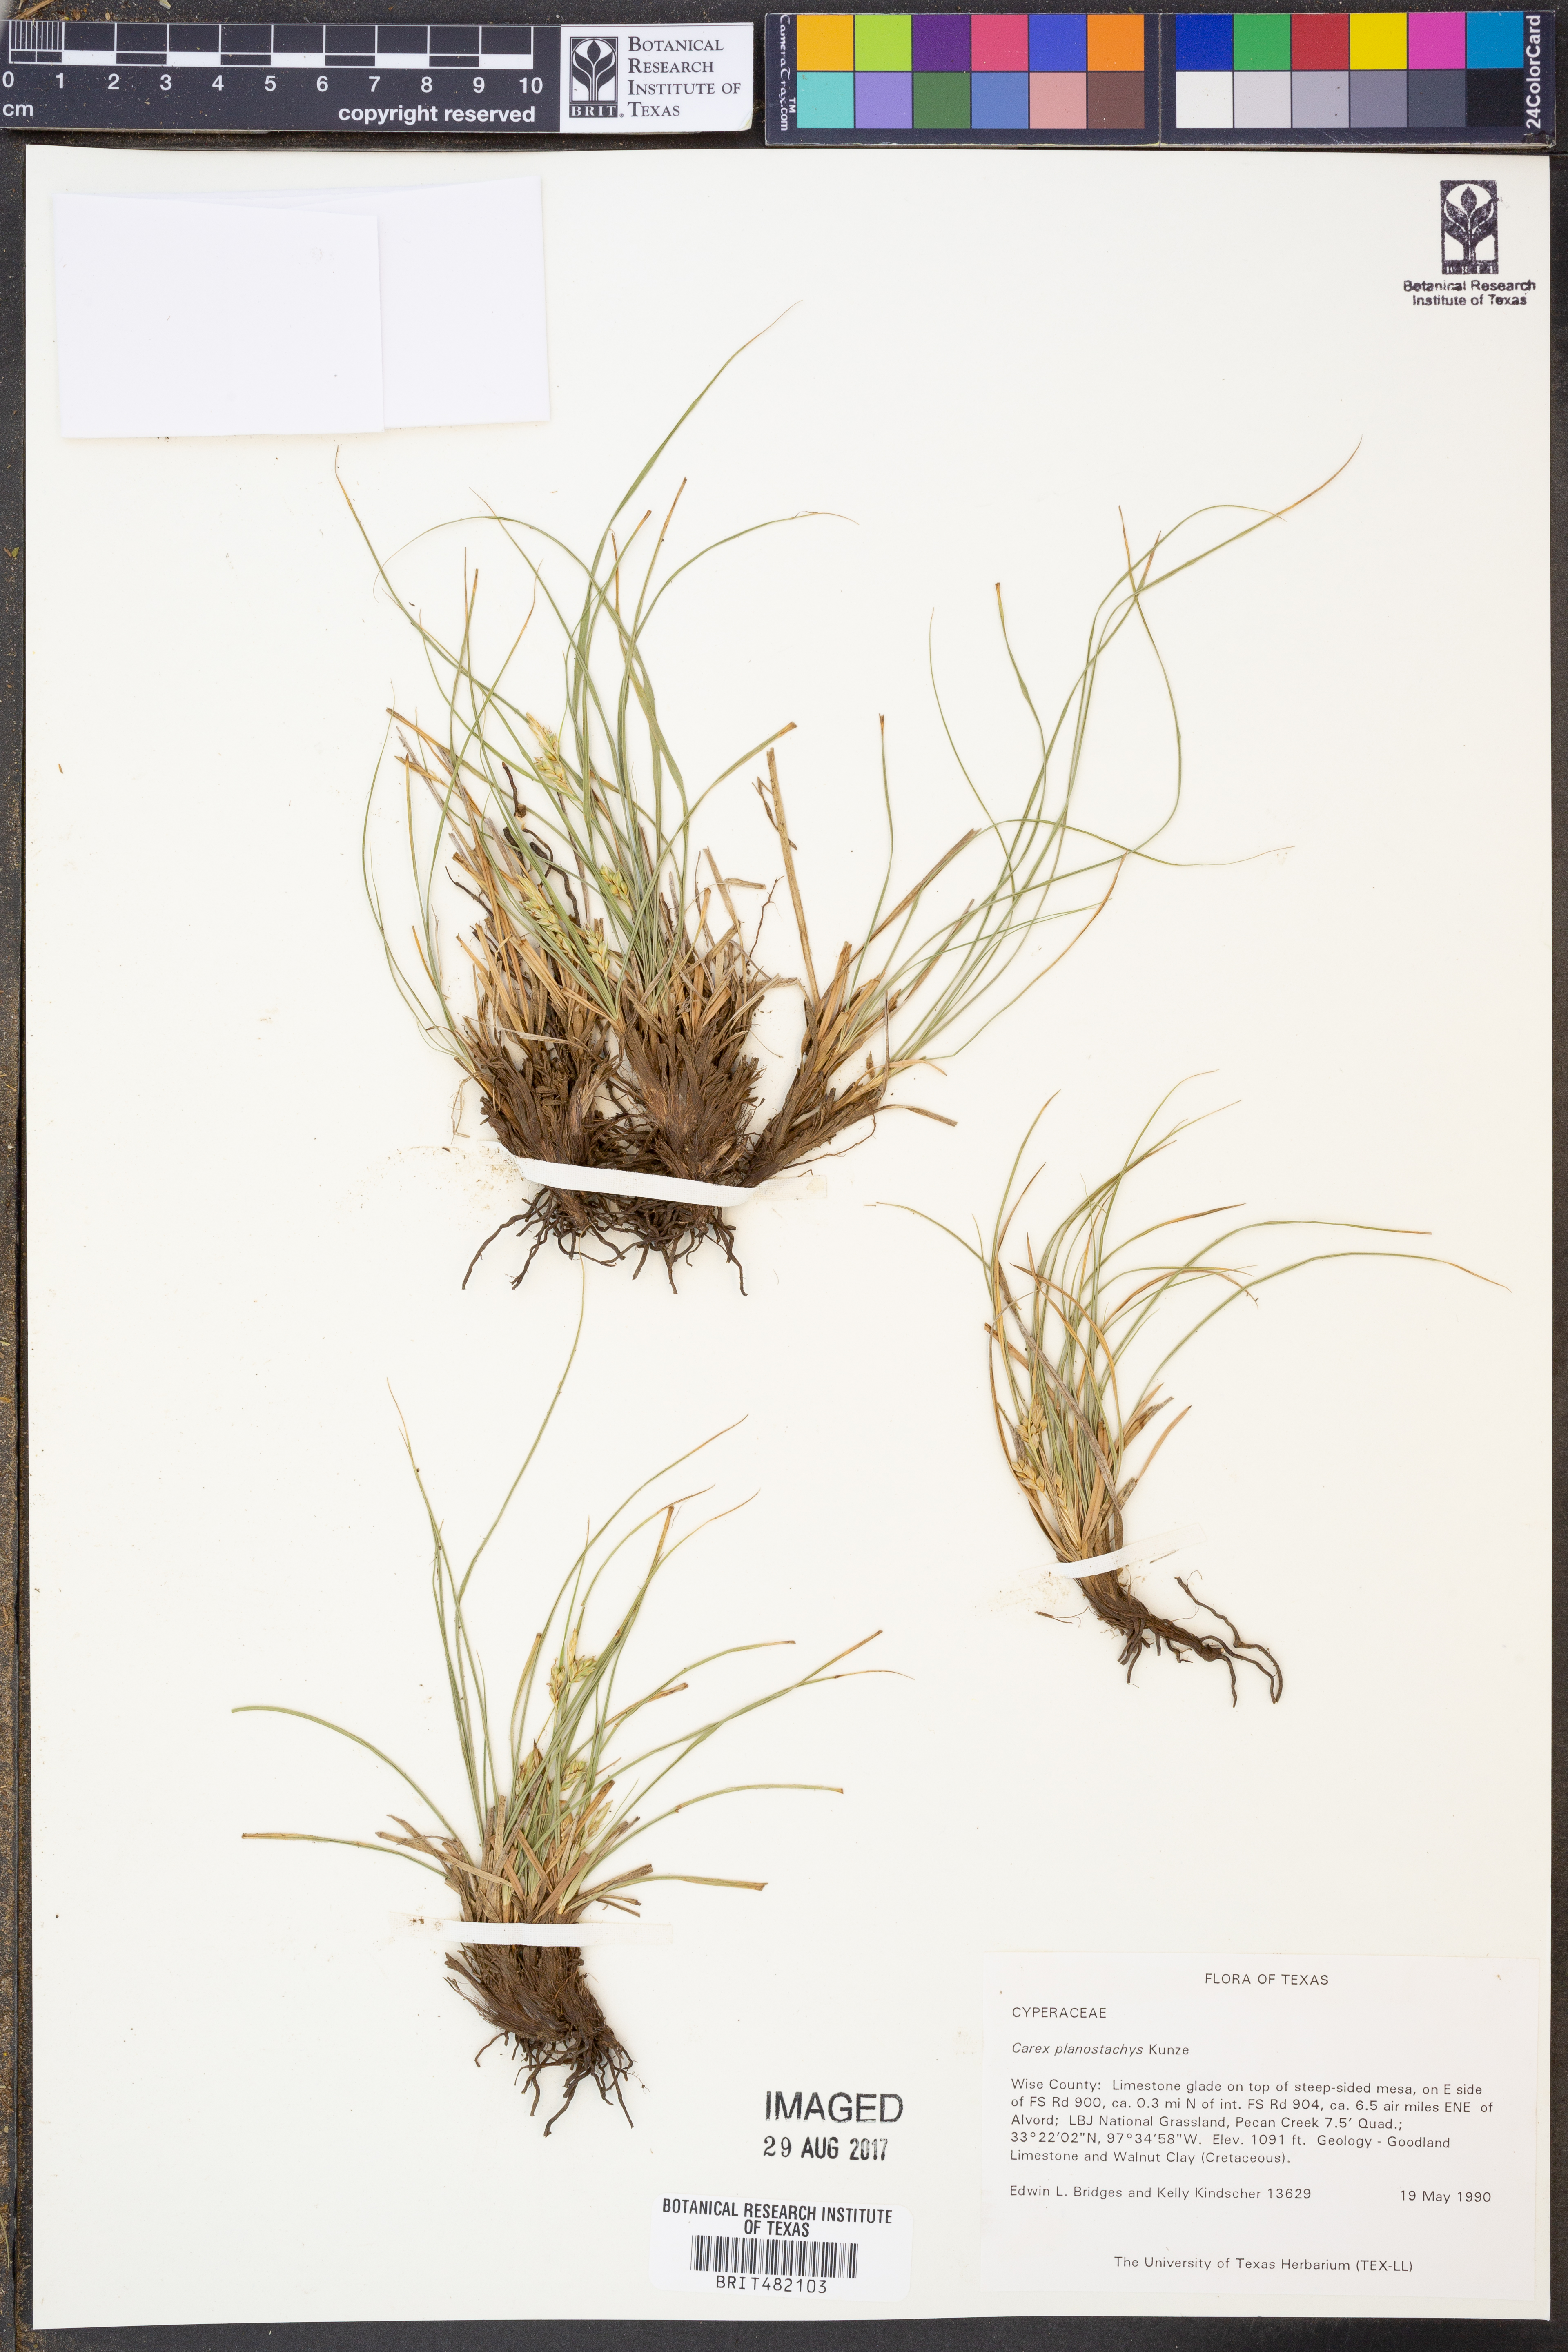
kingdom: Plantae
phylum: Tracheophyta
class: Liliopsida
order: Poales
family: Cyperaceae
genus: Carex
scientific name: Carex planostachys
